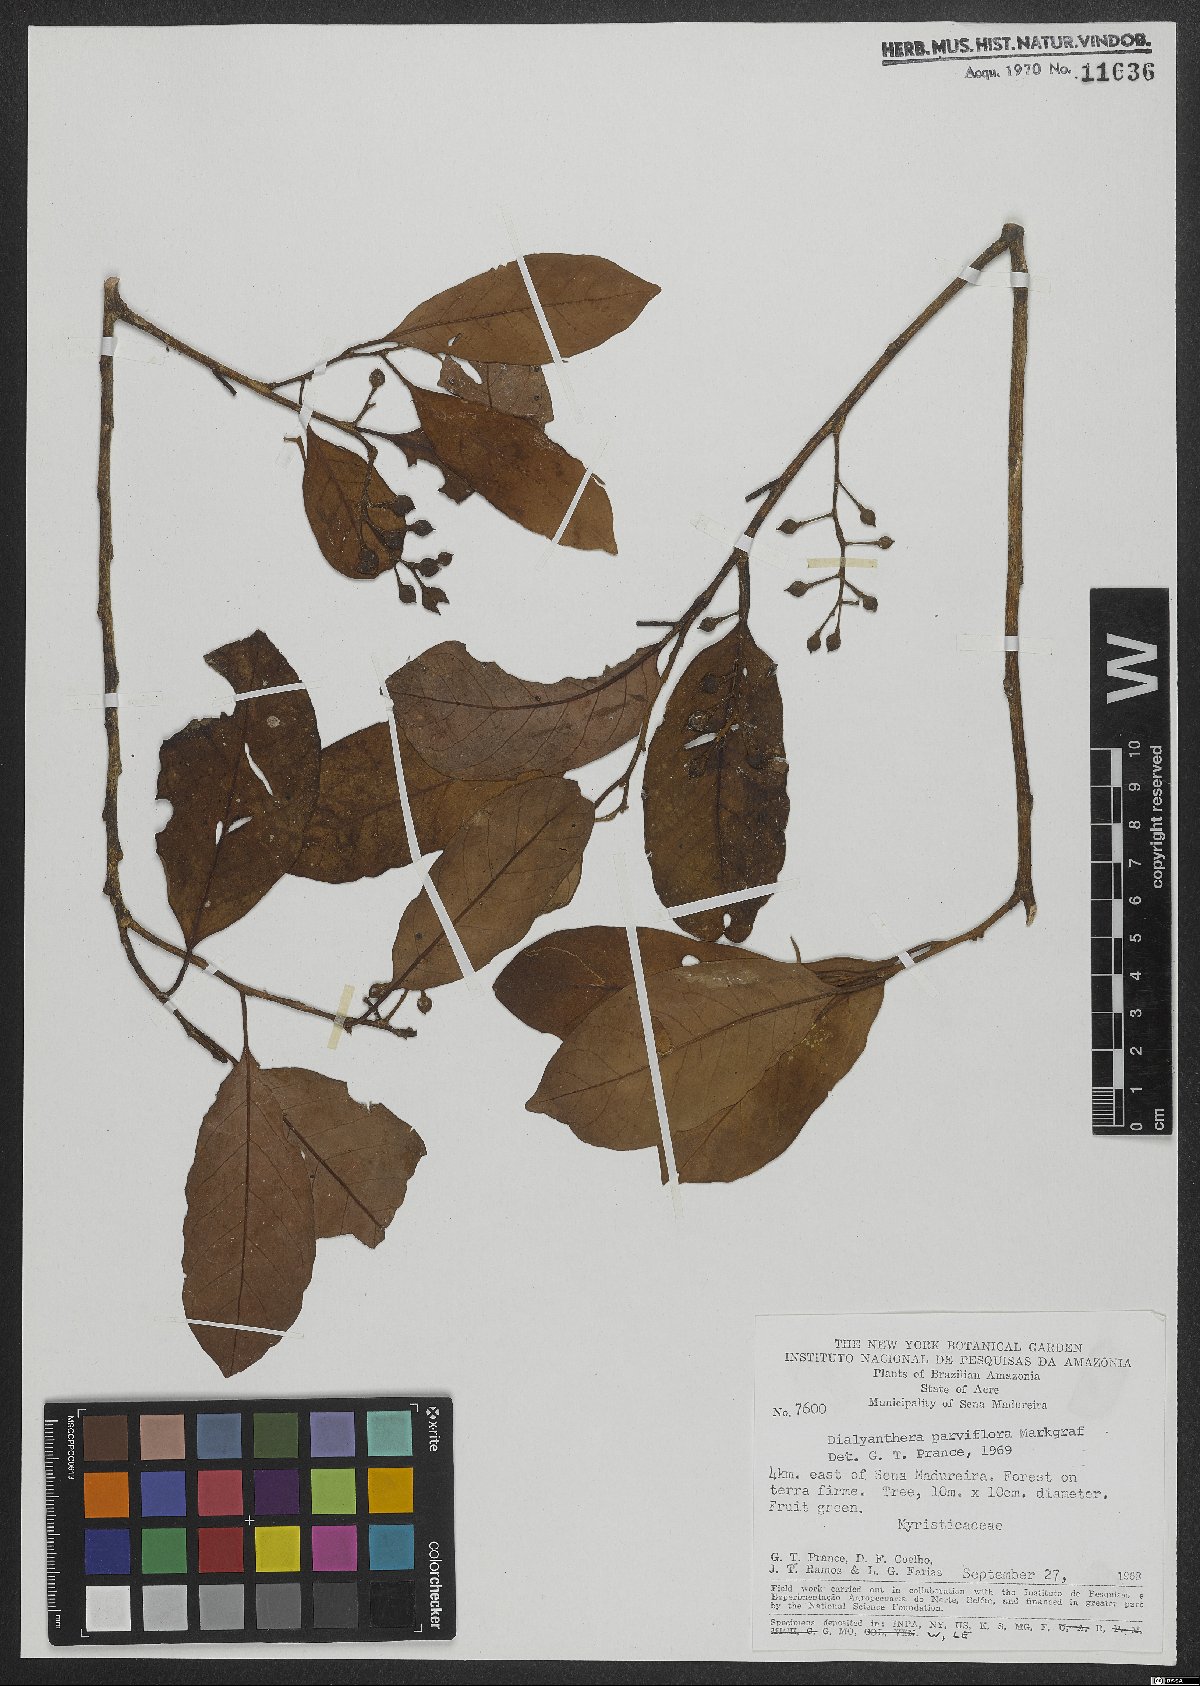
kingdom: Plantae
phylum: Tracheophyta
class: Magnoliopsida
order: Magnoliales
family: Myristicaceae
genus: Otoba
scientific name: Otoba parvifolia
